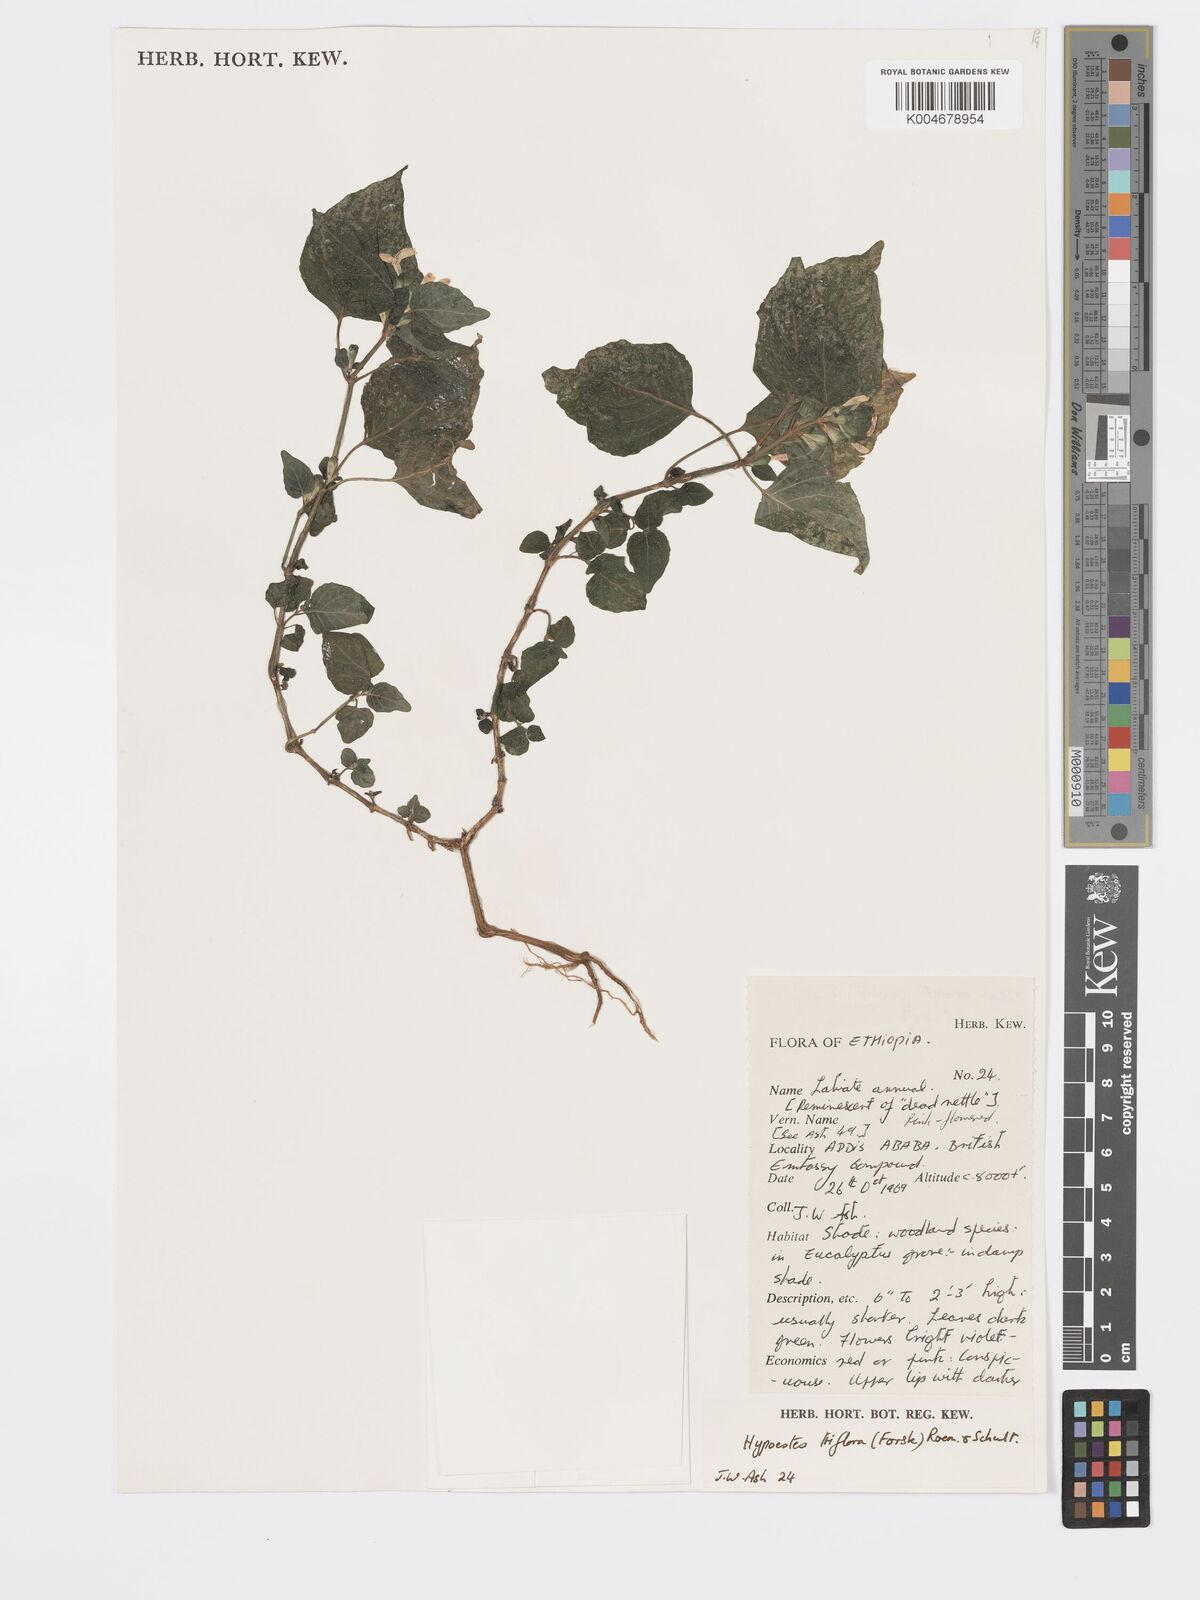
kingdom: Plantae
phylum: Tracheophyta
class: Magnoliopsida
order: Lamiales
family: Acanthaceae
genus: Hypoestes
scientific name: Hypoestes triflora
